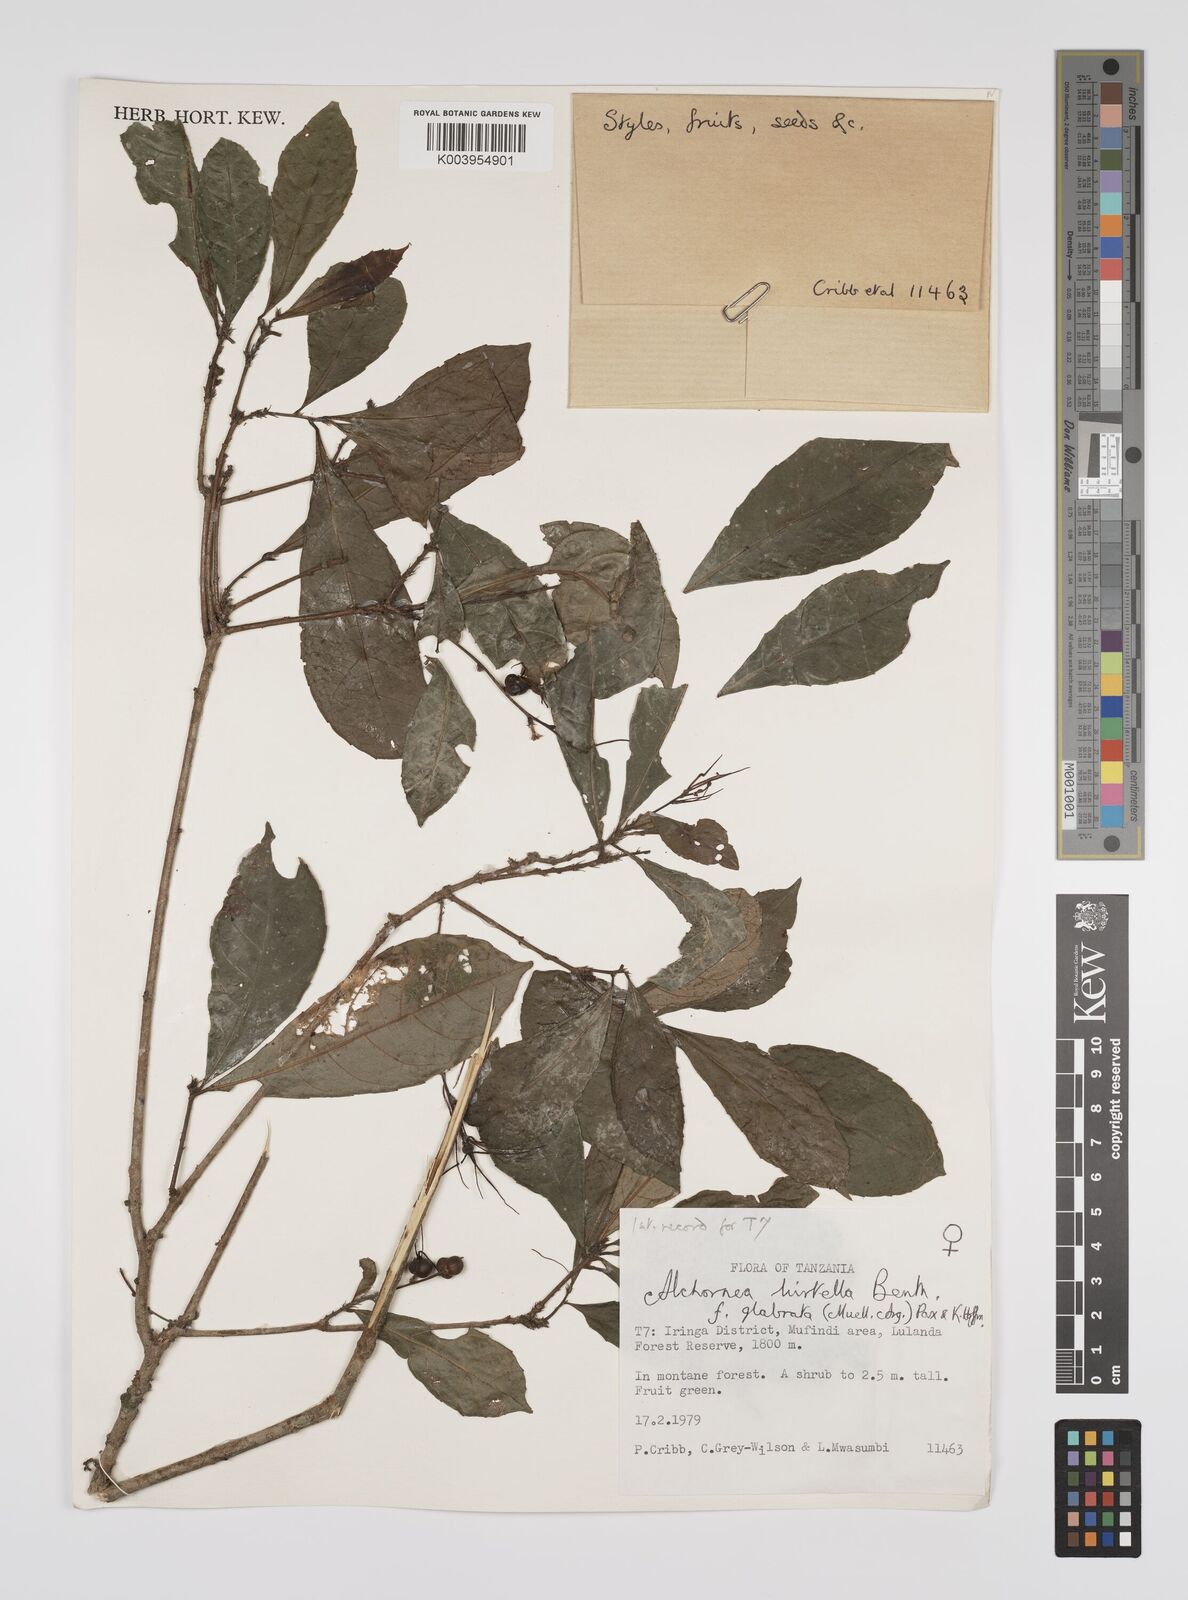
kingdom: Plantae
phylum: Tracheophyta
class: Magnoliopsida
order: Malpighiales
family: Euphorbiaceae
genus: Alchornea
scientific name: Alchornea hirtella
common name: Forest bead-string
